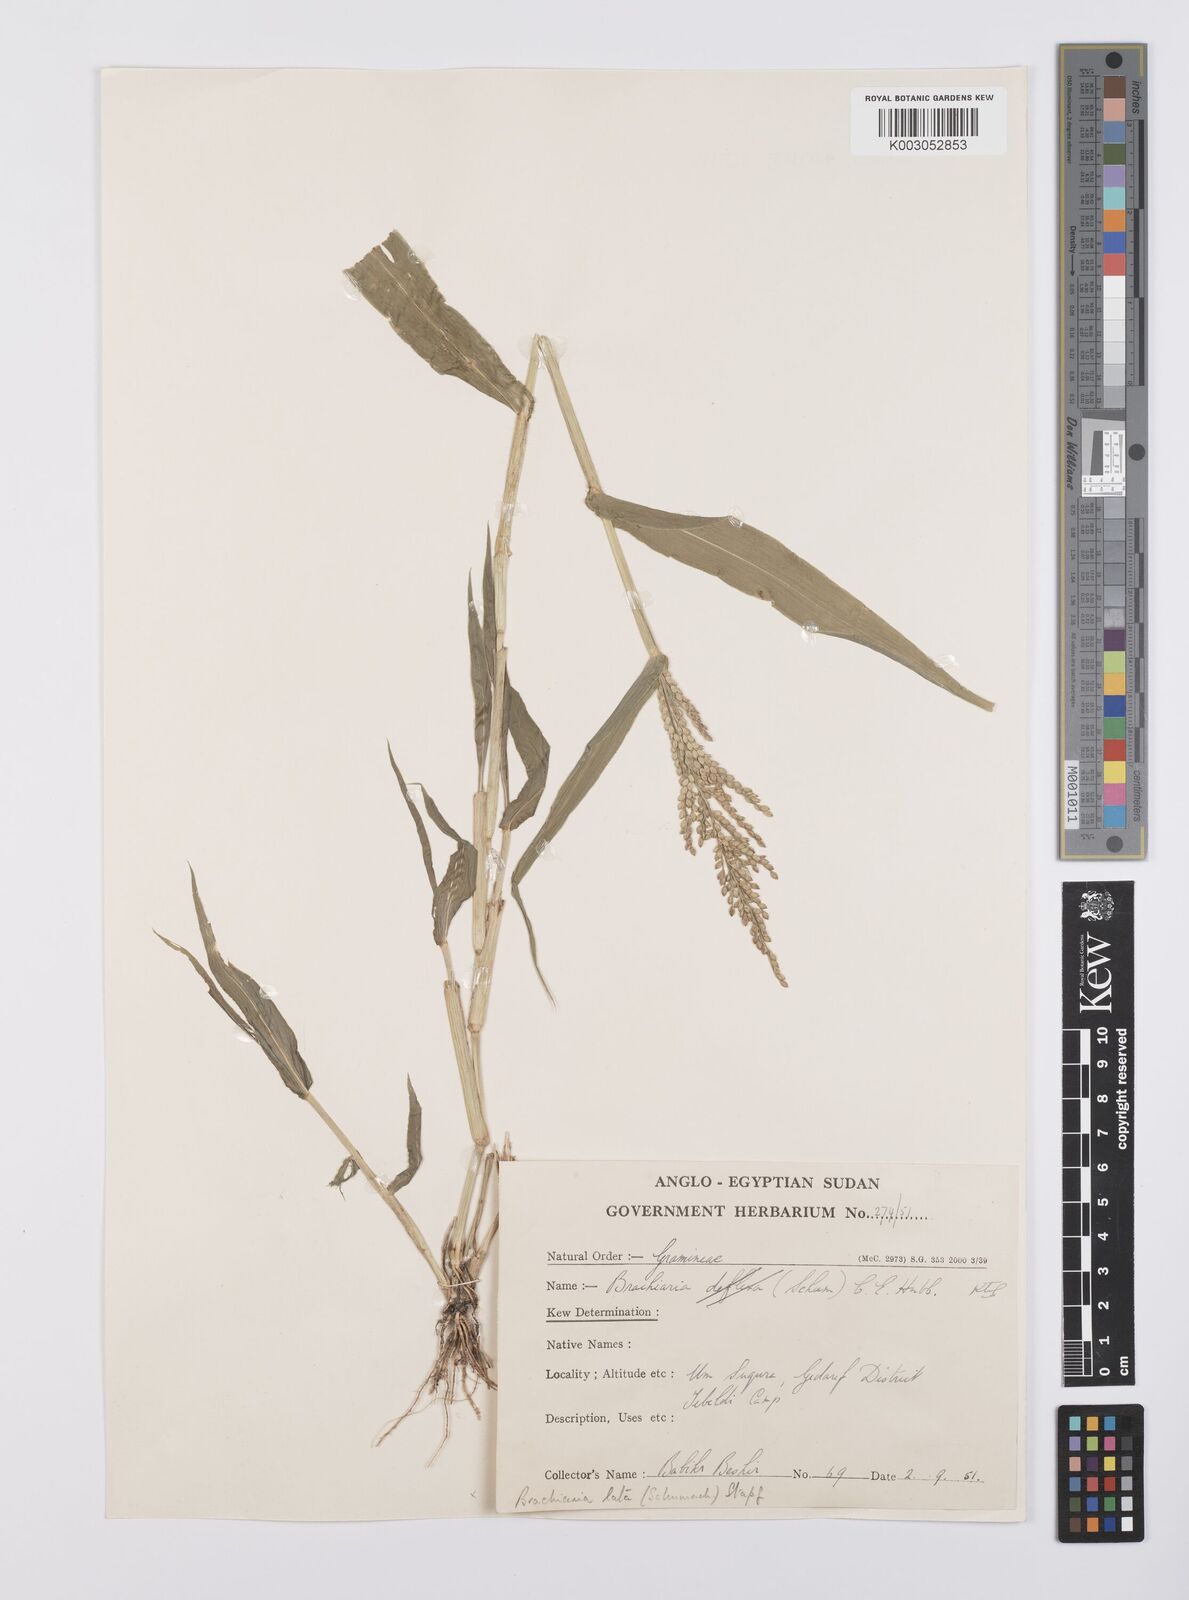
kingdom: Plantae
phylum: Tracheophyta
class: Liliopsida
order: Poales
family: Poaceae
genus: Urochloa
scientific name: Urochloa lata
